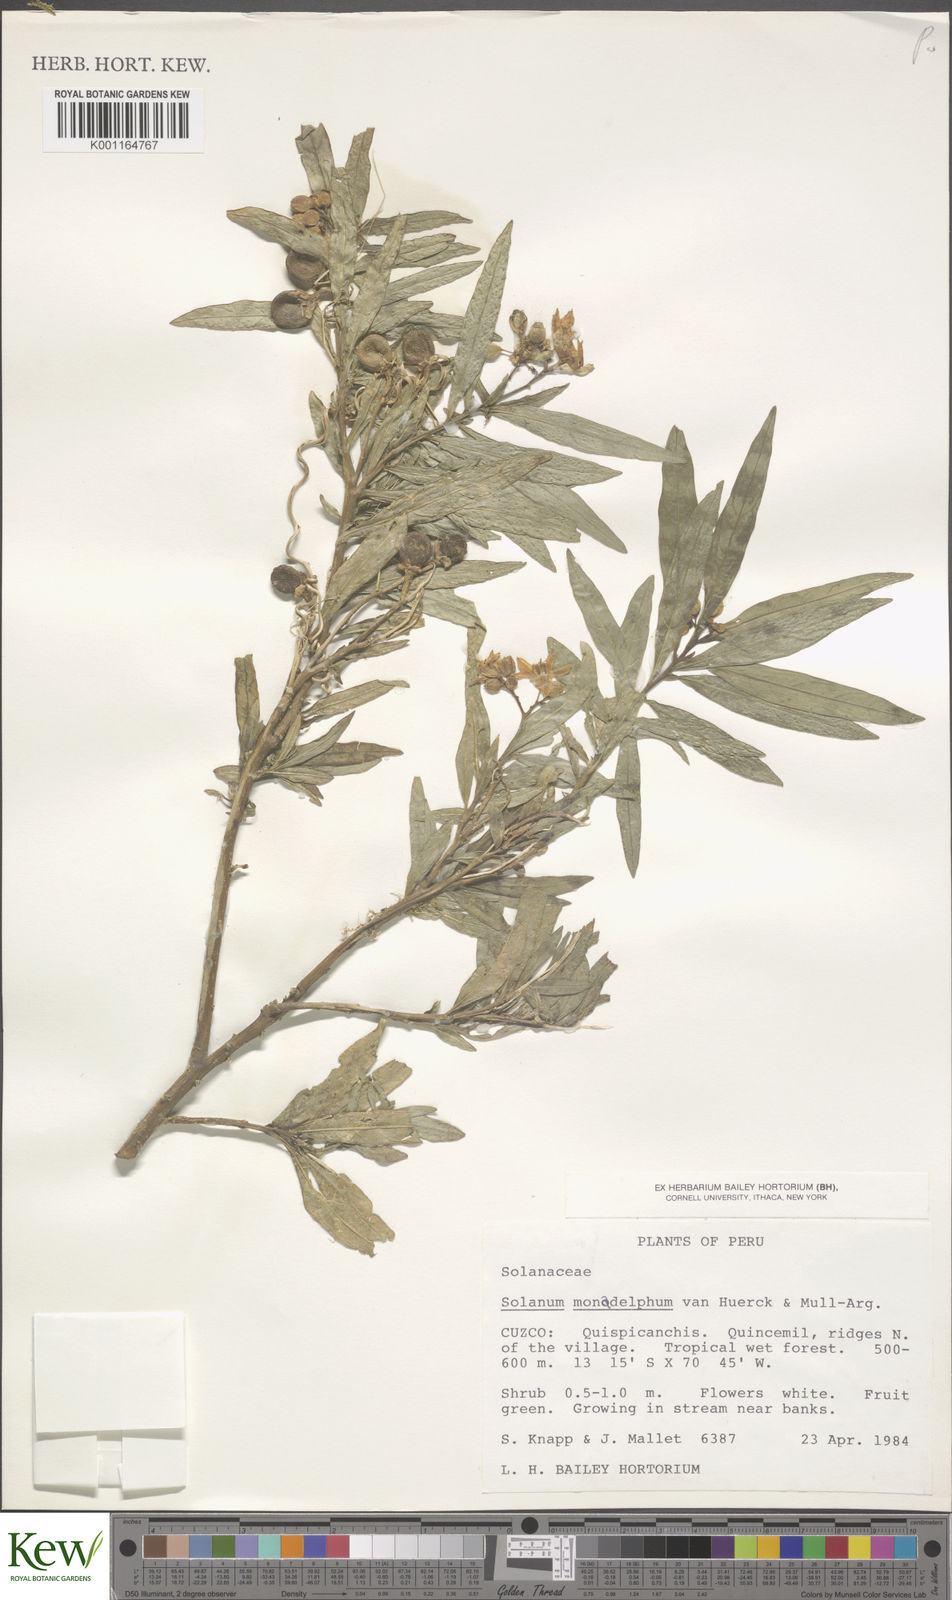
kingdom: Plantae
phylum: Tracheophyta
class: Magnoliopsida
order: Solanales
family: Solanaceae
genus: Solanum
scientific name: Solanum monadelphum
